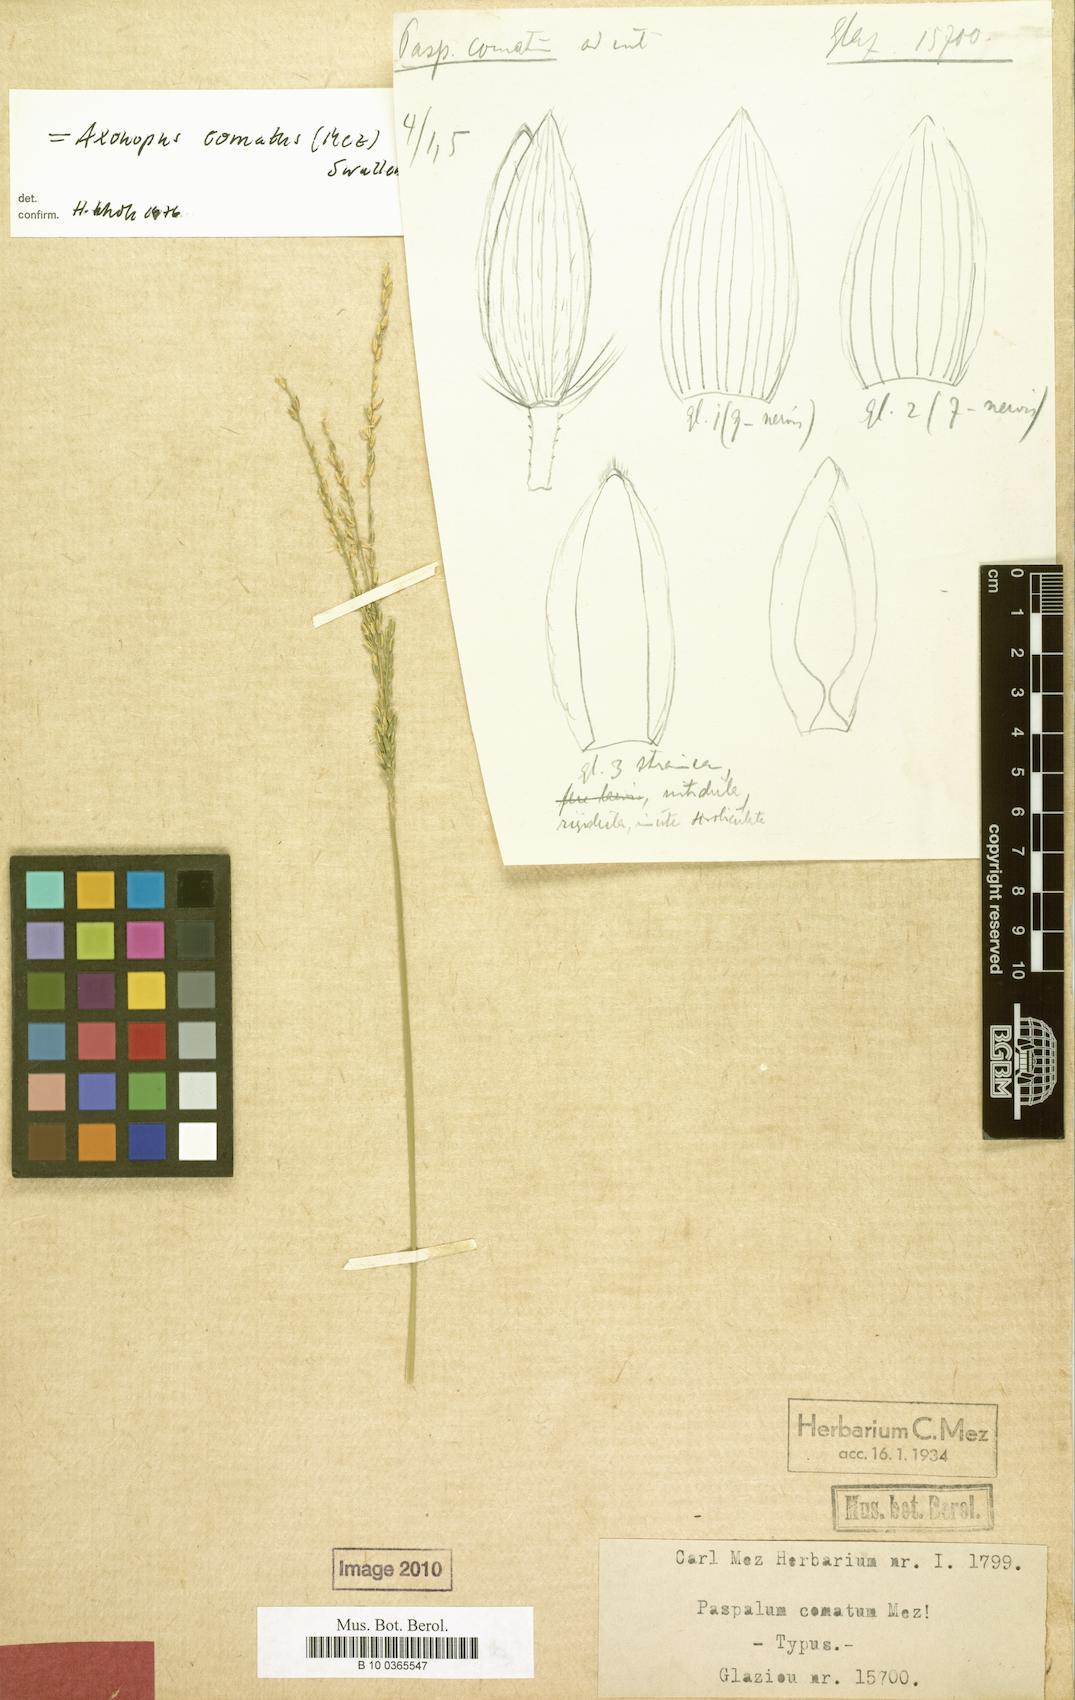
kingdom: Plantae
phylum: Tracheophyta
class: Liliopsida
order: Poales
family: Poaceae
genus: Axonopus
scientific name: Axonopus comatus
